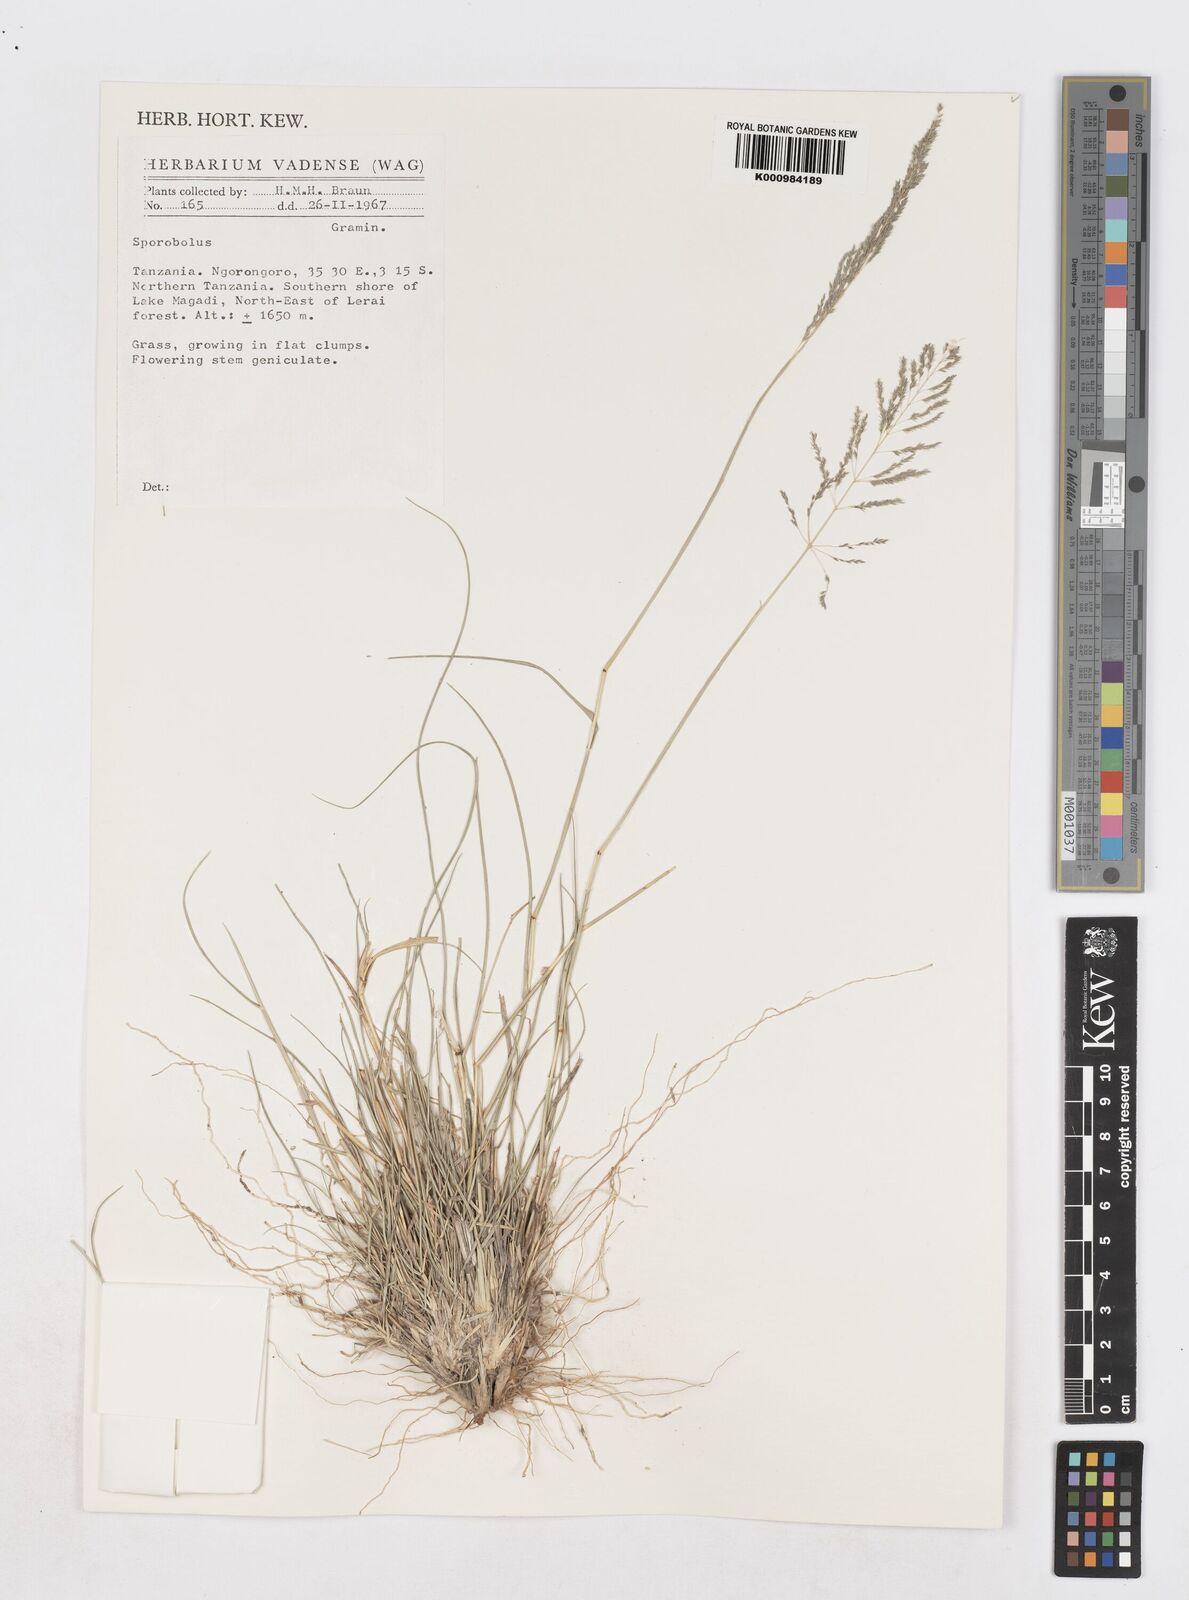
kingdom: Plantae
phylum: Tracheophyta
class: Liliopsida
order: Poales
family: Poaceae
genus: Sporobolus
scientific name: Sporobolus ioclados
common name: Pan dropseed
